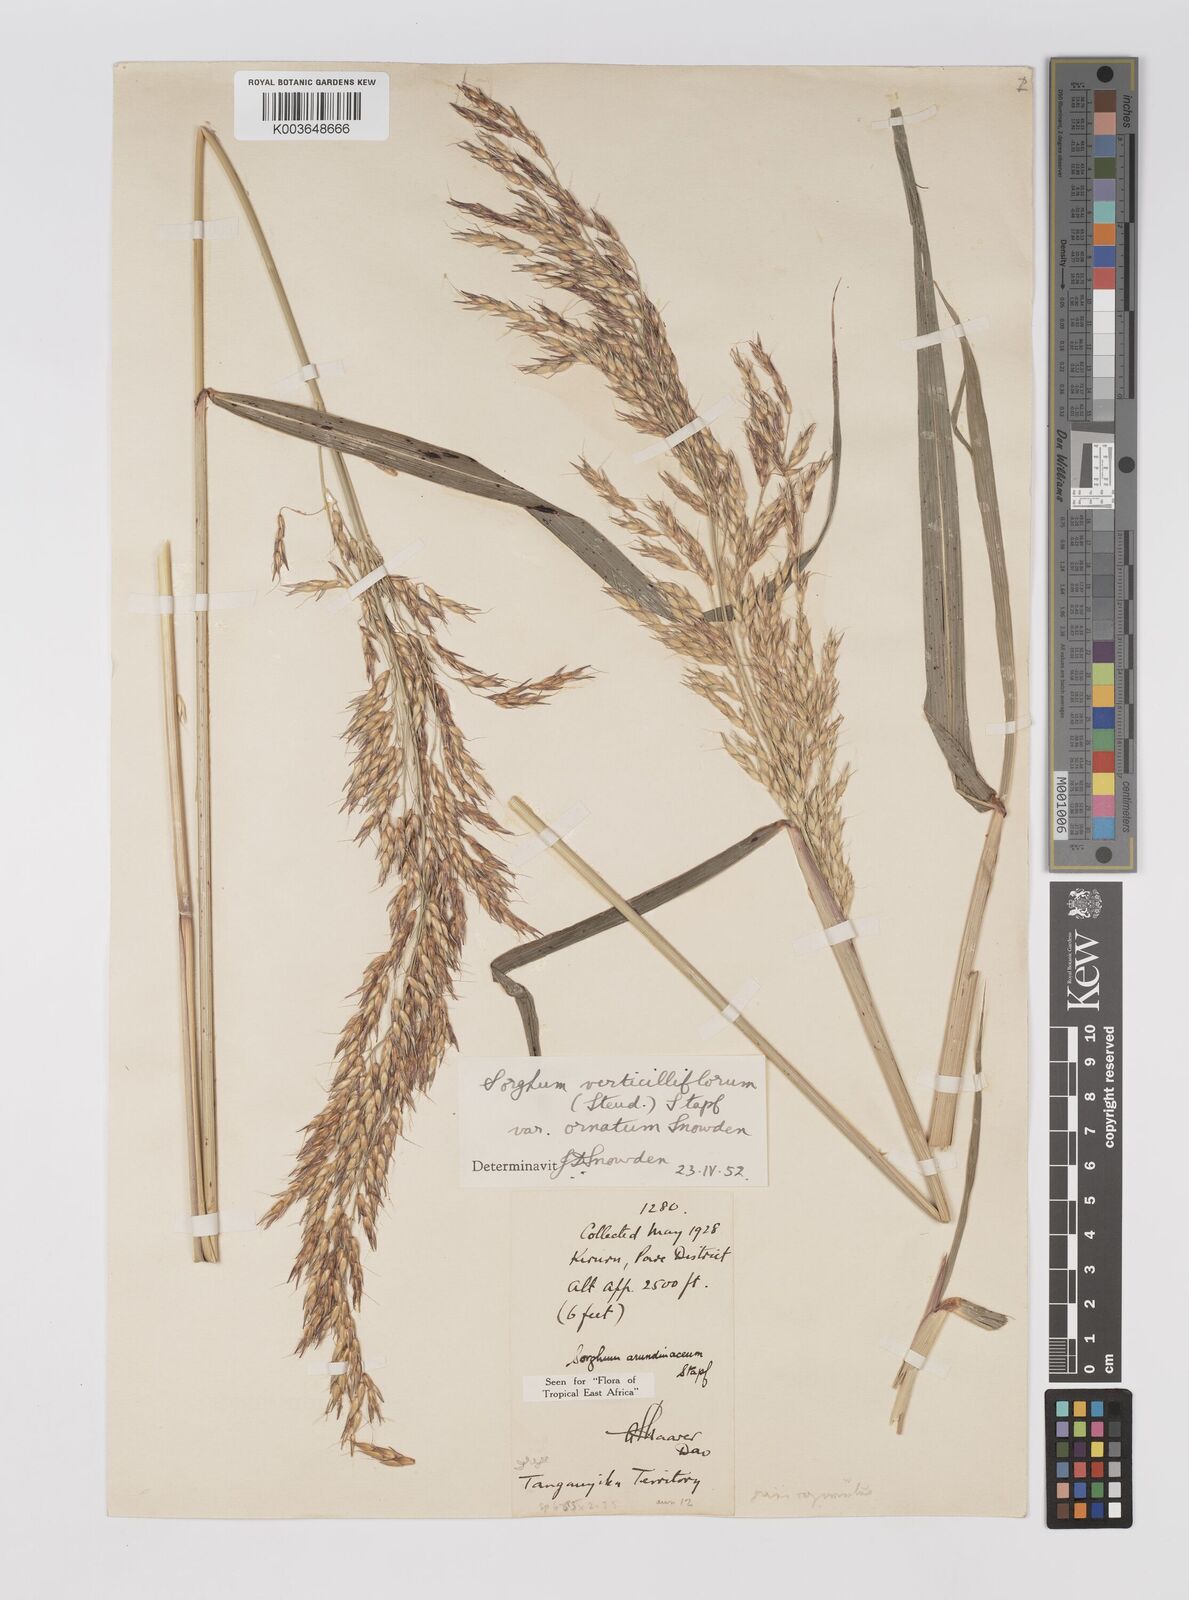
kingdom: Plantae
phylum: Tracheophyta
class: Liliopsida
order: Poales
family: Poaceae
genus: Sorghum
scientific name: Sorghum arundinaceum
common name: Sorghum
